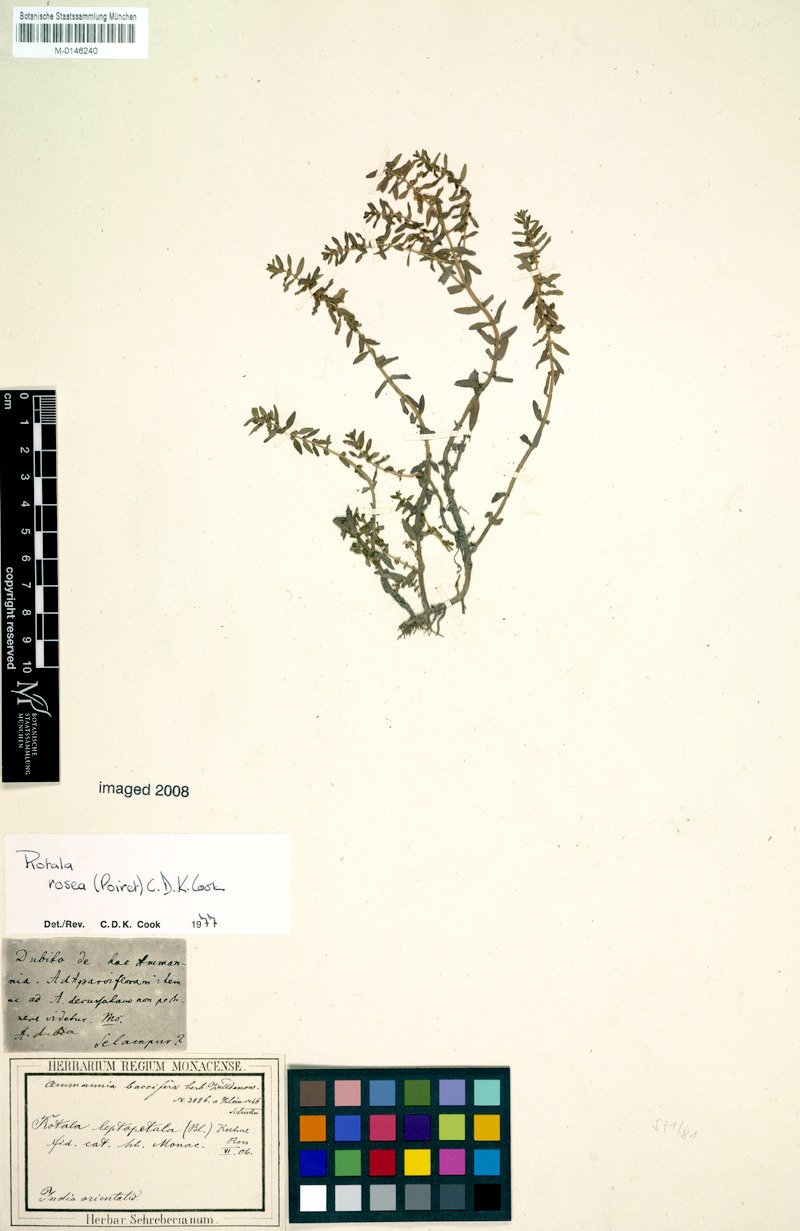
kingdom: Plantae
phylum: Tracheophyta
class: Magnoliopsida
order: Myrtales
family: Lythraceae
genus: Rotala
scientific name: Rotala rosea
